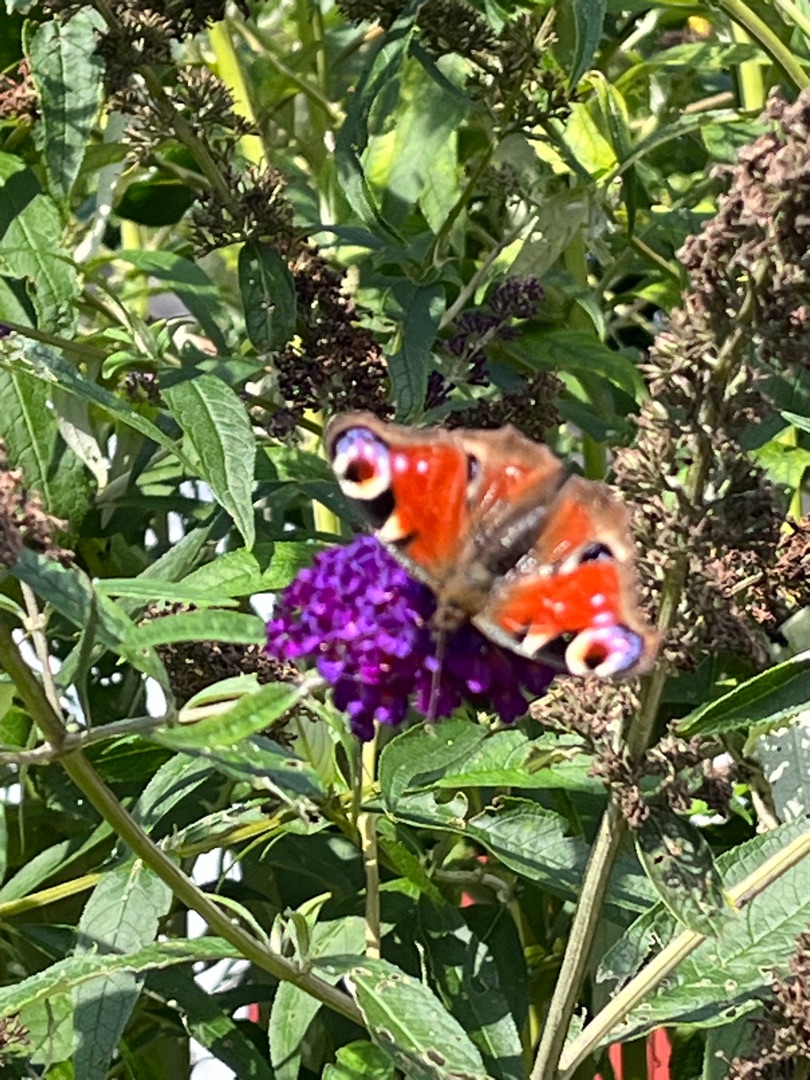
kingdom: Animalia
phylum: Arthropoda
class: Insecta
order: Lepidoptera
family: Nymphalidae
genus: Aglais
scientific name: Aglais io
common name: Dagpåfugleøje
